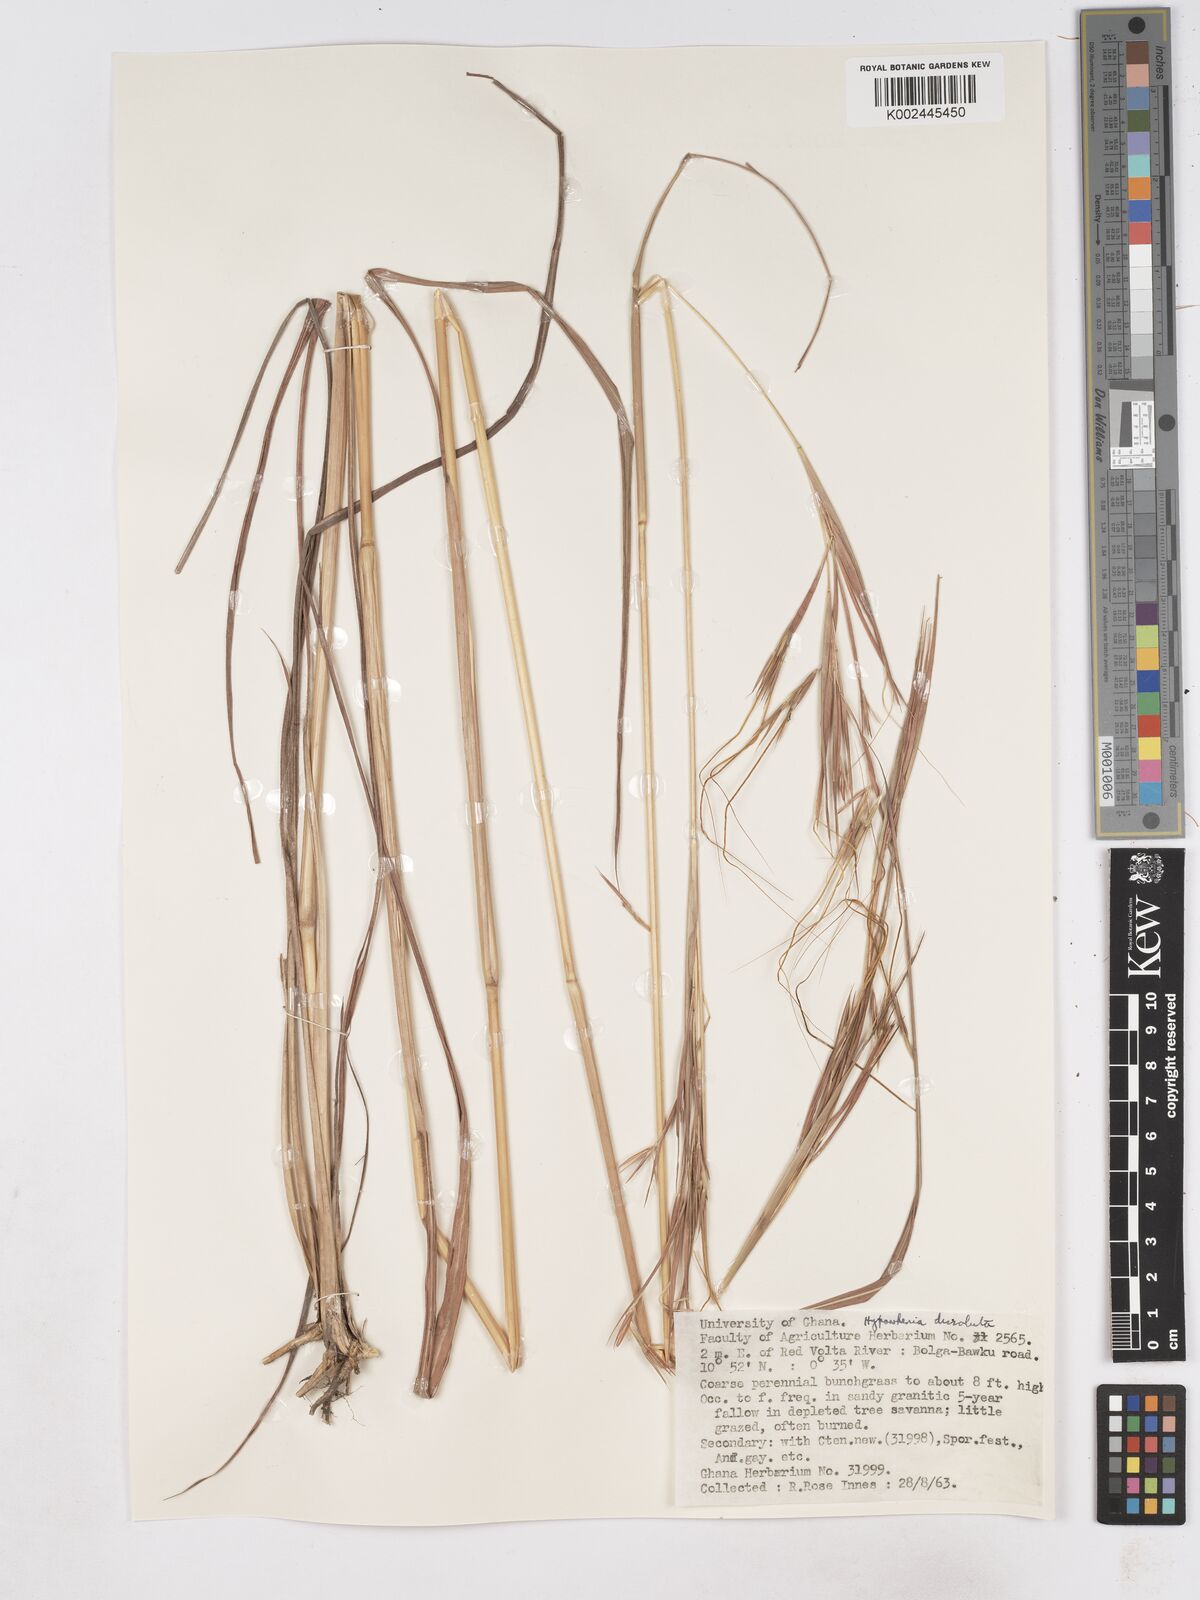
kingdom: Plantae
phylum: Tracheophyta
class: Liliopsida
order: Poales
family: Poaceae
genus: Hyperthelia
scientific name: Hyperthelia dissoluta
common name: Yellow thatching grass
